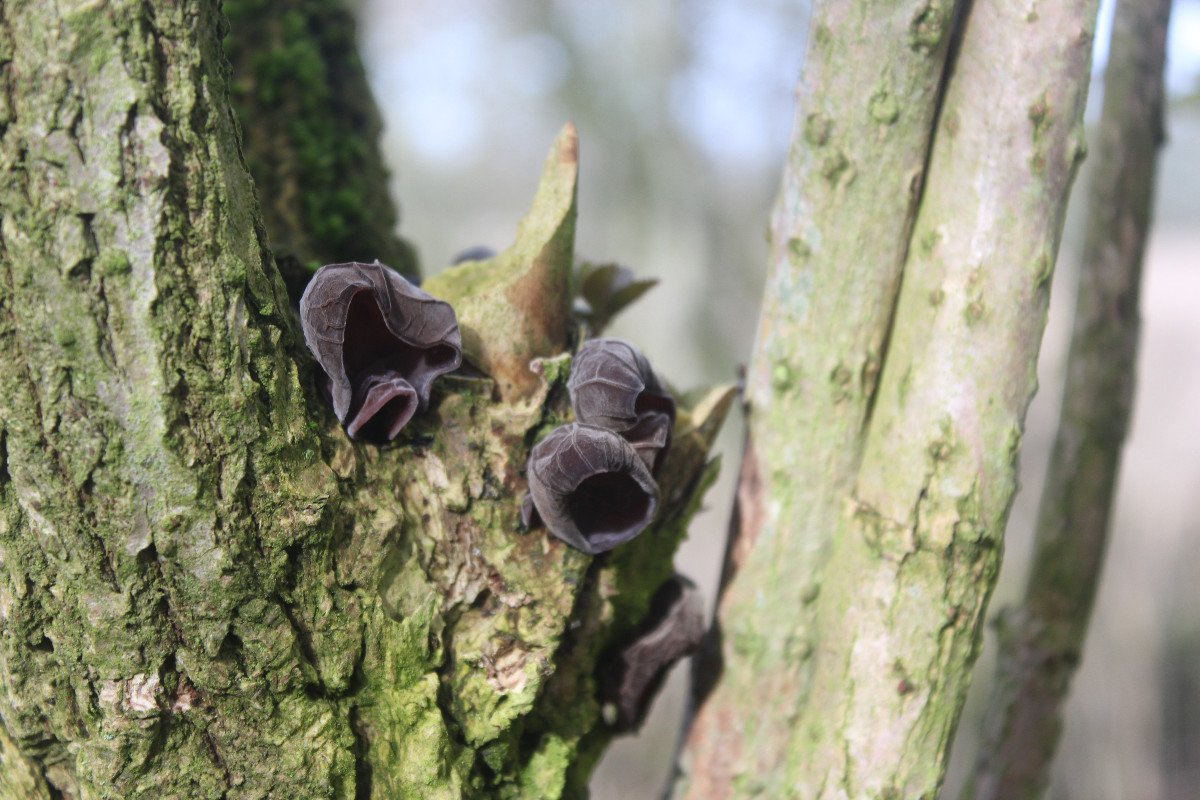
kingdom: Fungi
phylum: Basidiomycota
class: Agaricomycetes
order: Auriculariales
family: Auriculariaceae
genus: Auricularia
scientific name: Auricularia auricula-judae
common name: almindelig judasøre
